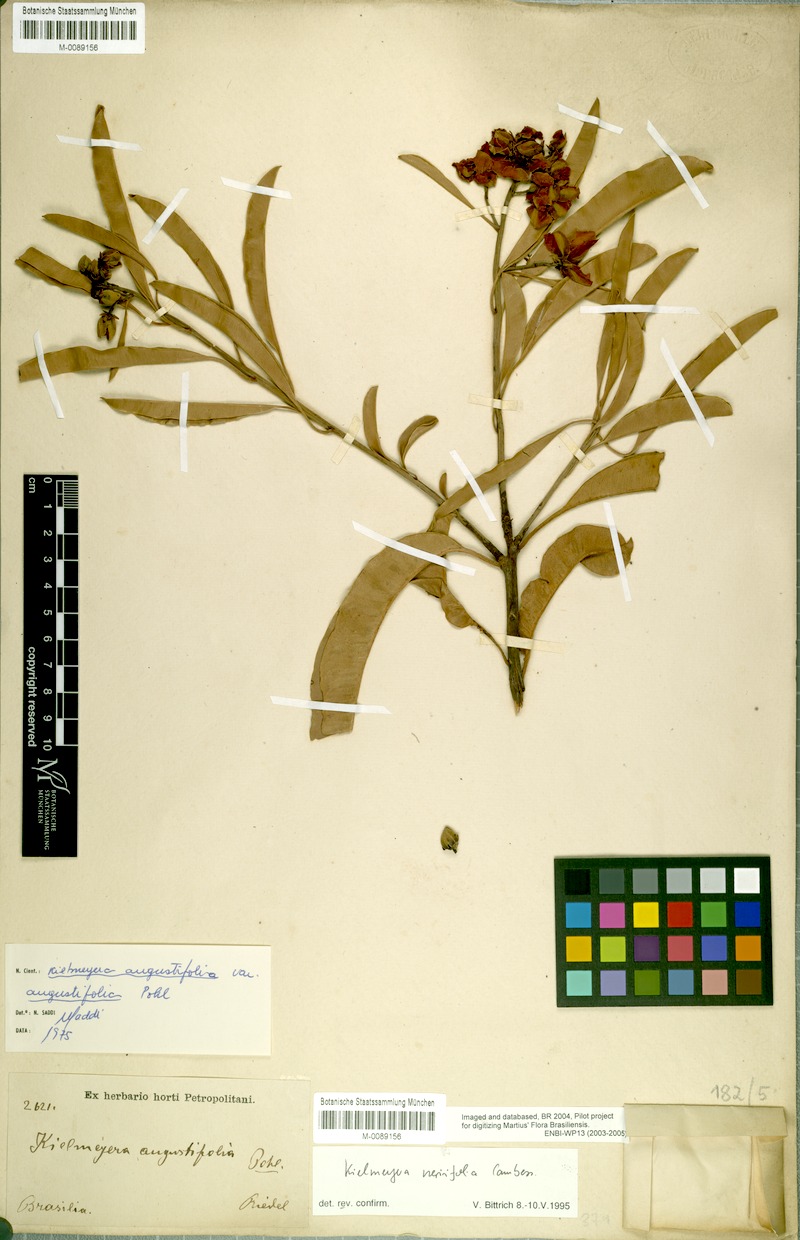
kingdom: Plantae
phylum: Tracheophyta
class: Magnoliopsida
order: Malpighiales
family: Calophyllaceae
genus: Kielmeyera
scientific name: Kielmeyera neriifolia
